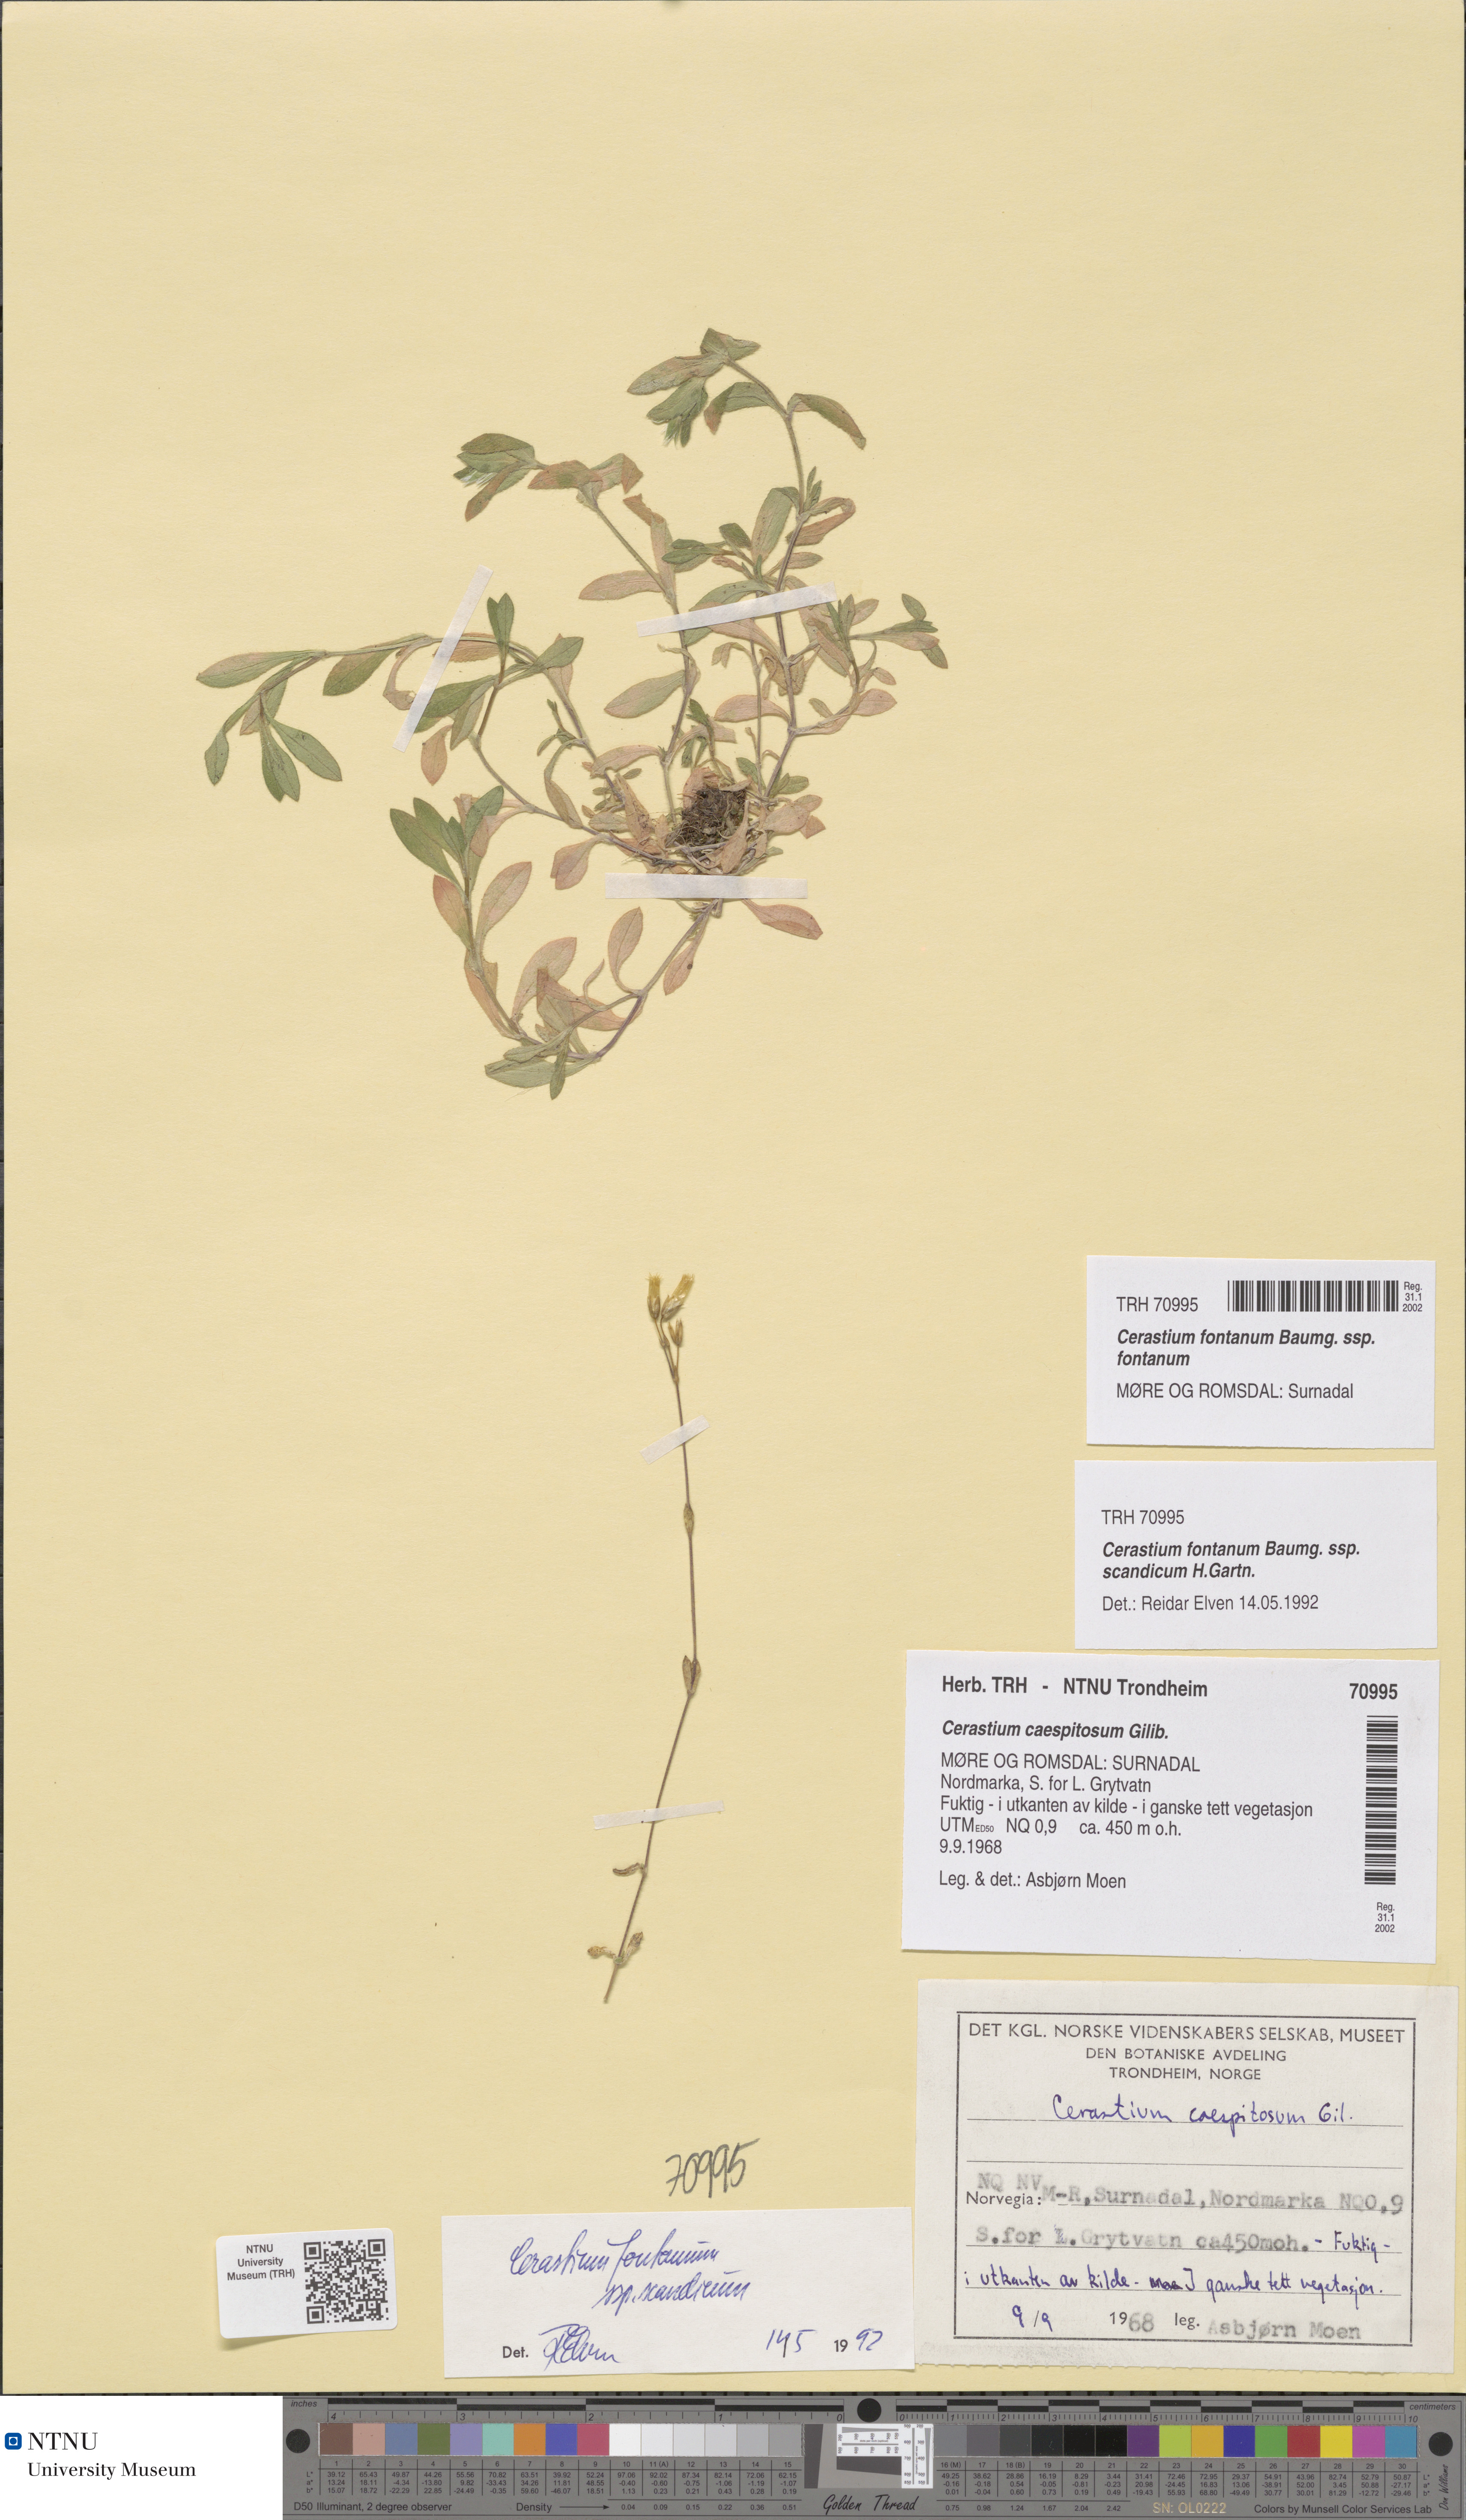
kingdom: Plantae
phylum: Tracheophyta
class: Magnoliopsida
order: Caryophyllales
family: Caryophyllaceae
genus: Cerastium
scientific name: Cerastium fontanum
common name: Common mouse-ear
